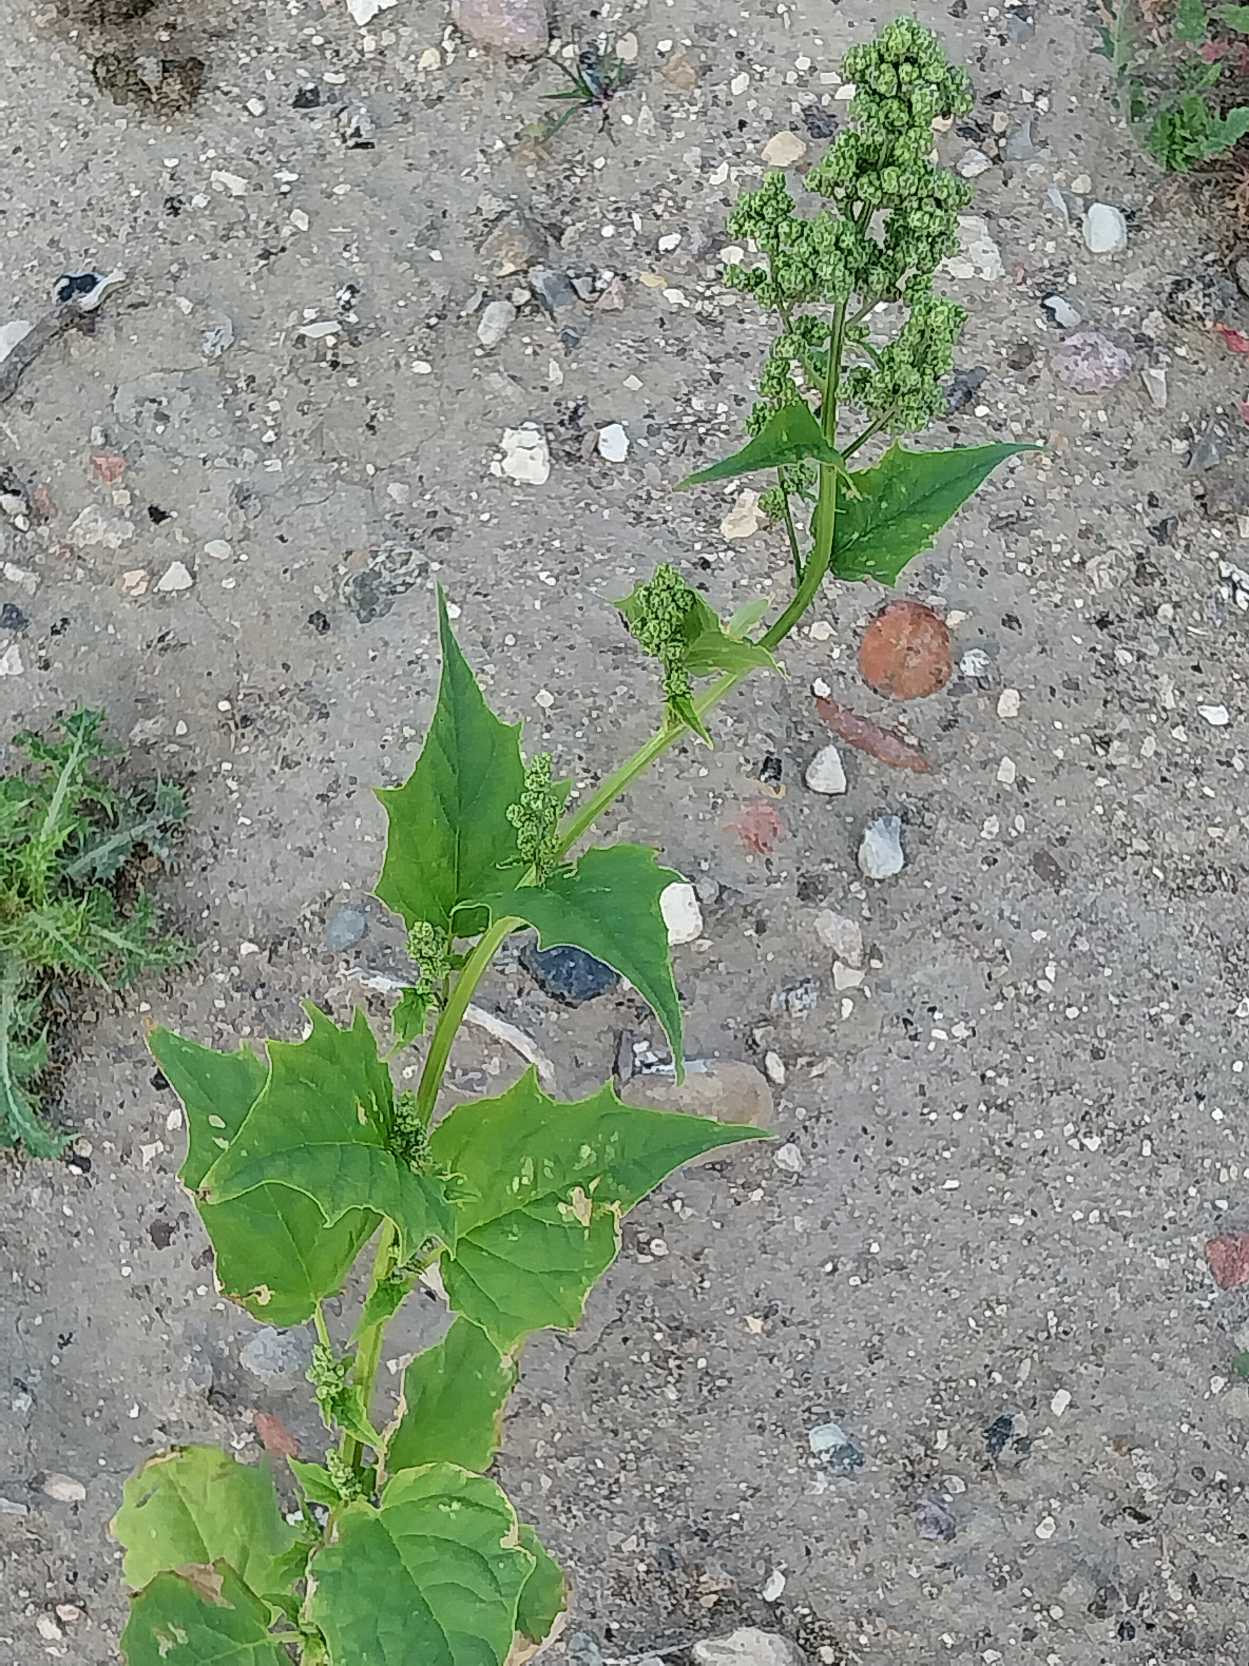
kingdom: Plantae
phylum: Tracheophyta
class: Magnoliopsida
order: Caryophyllales
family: Amaranthaceae
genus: Chenopodiastrum
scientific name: Chenopodiastrum hybridum
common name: Hjertebladet gåsefod
